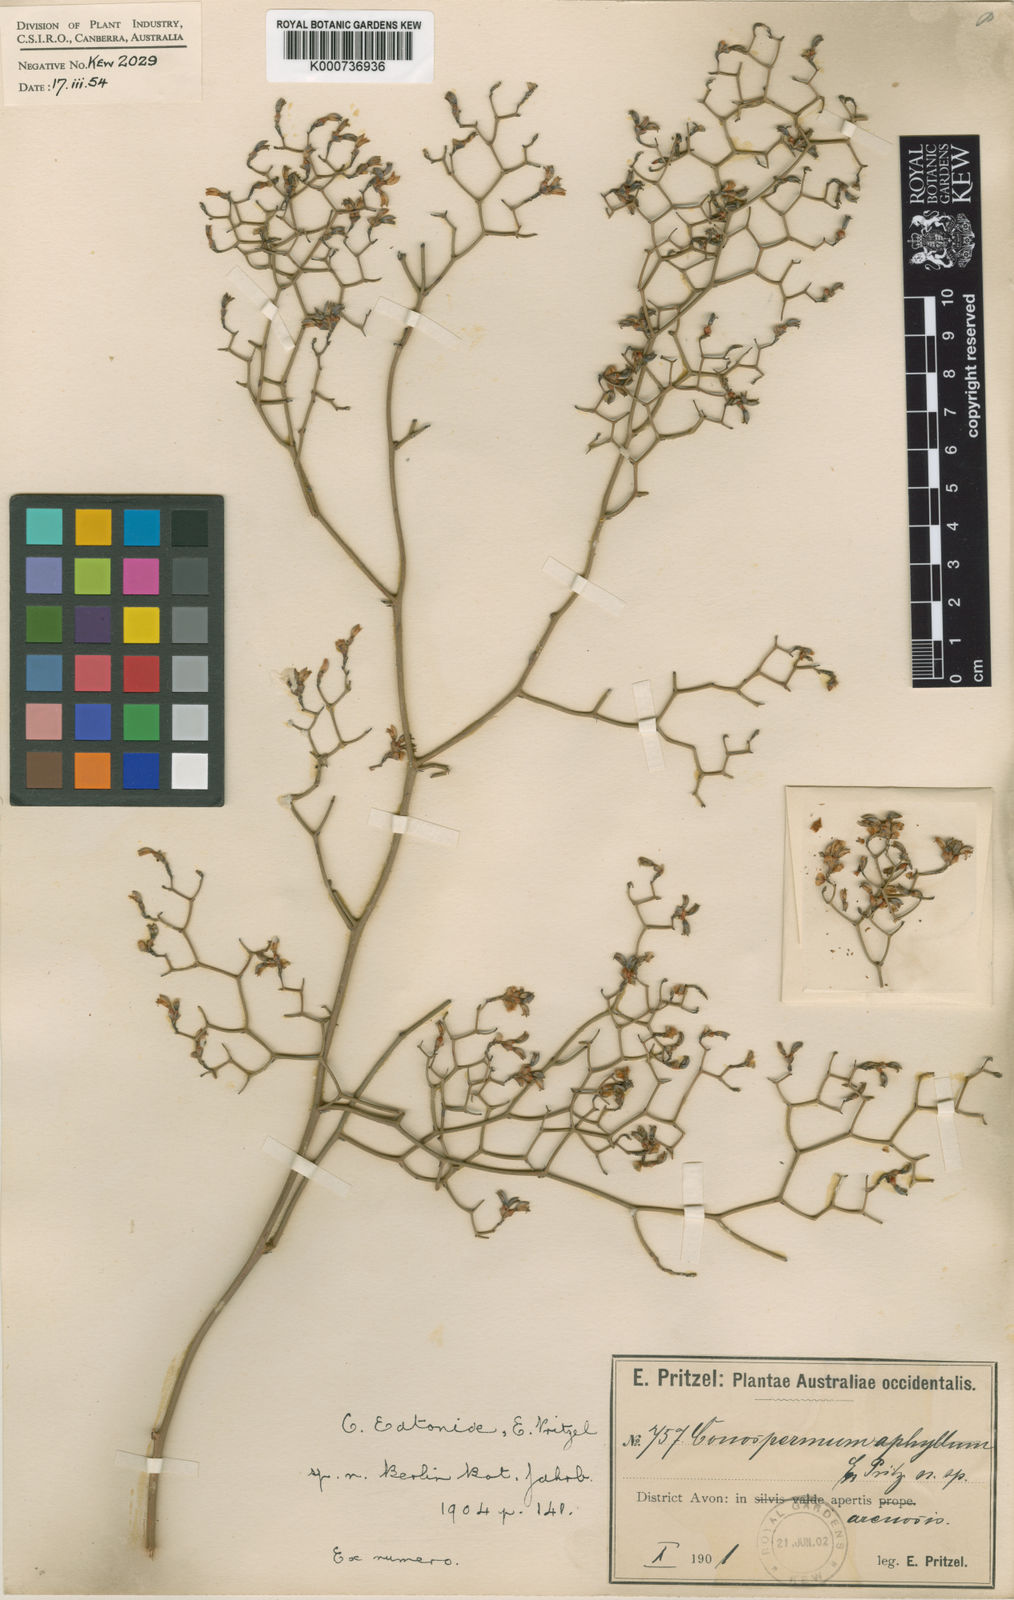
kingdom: Plantae
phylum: Tracheophyta
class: Magnoliopsida
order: Proteales
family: Proteaceae
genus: Conospermum
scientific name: Conospermum eatoniae
